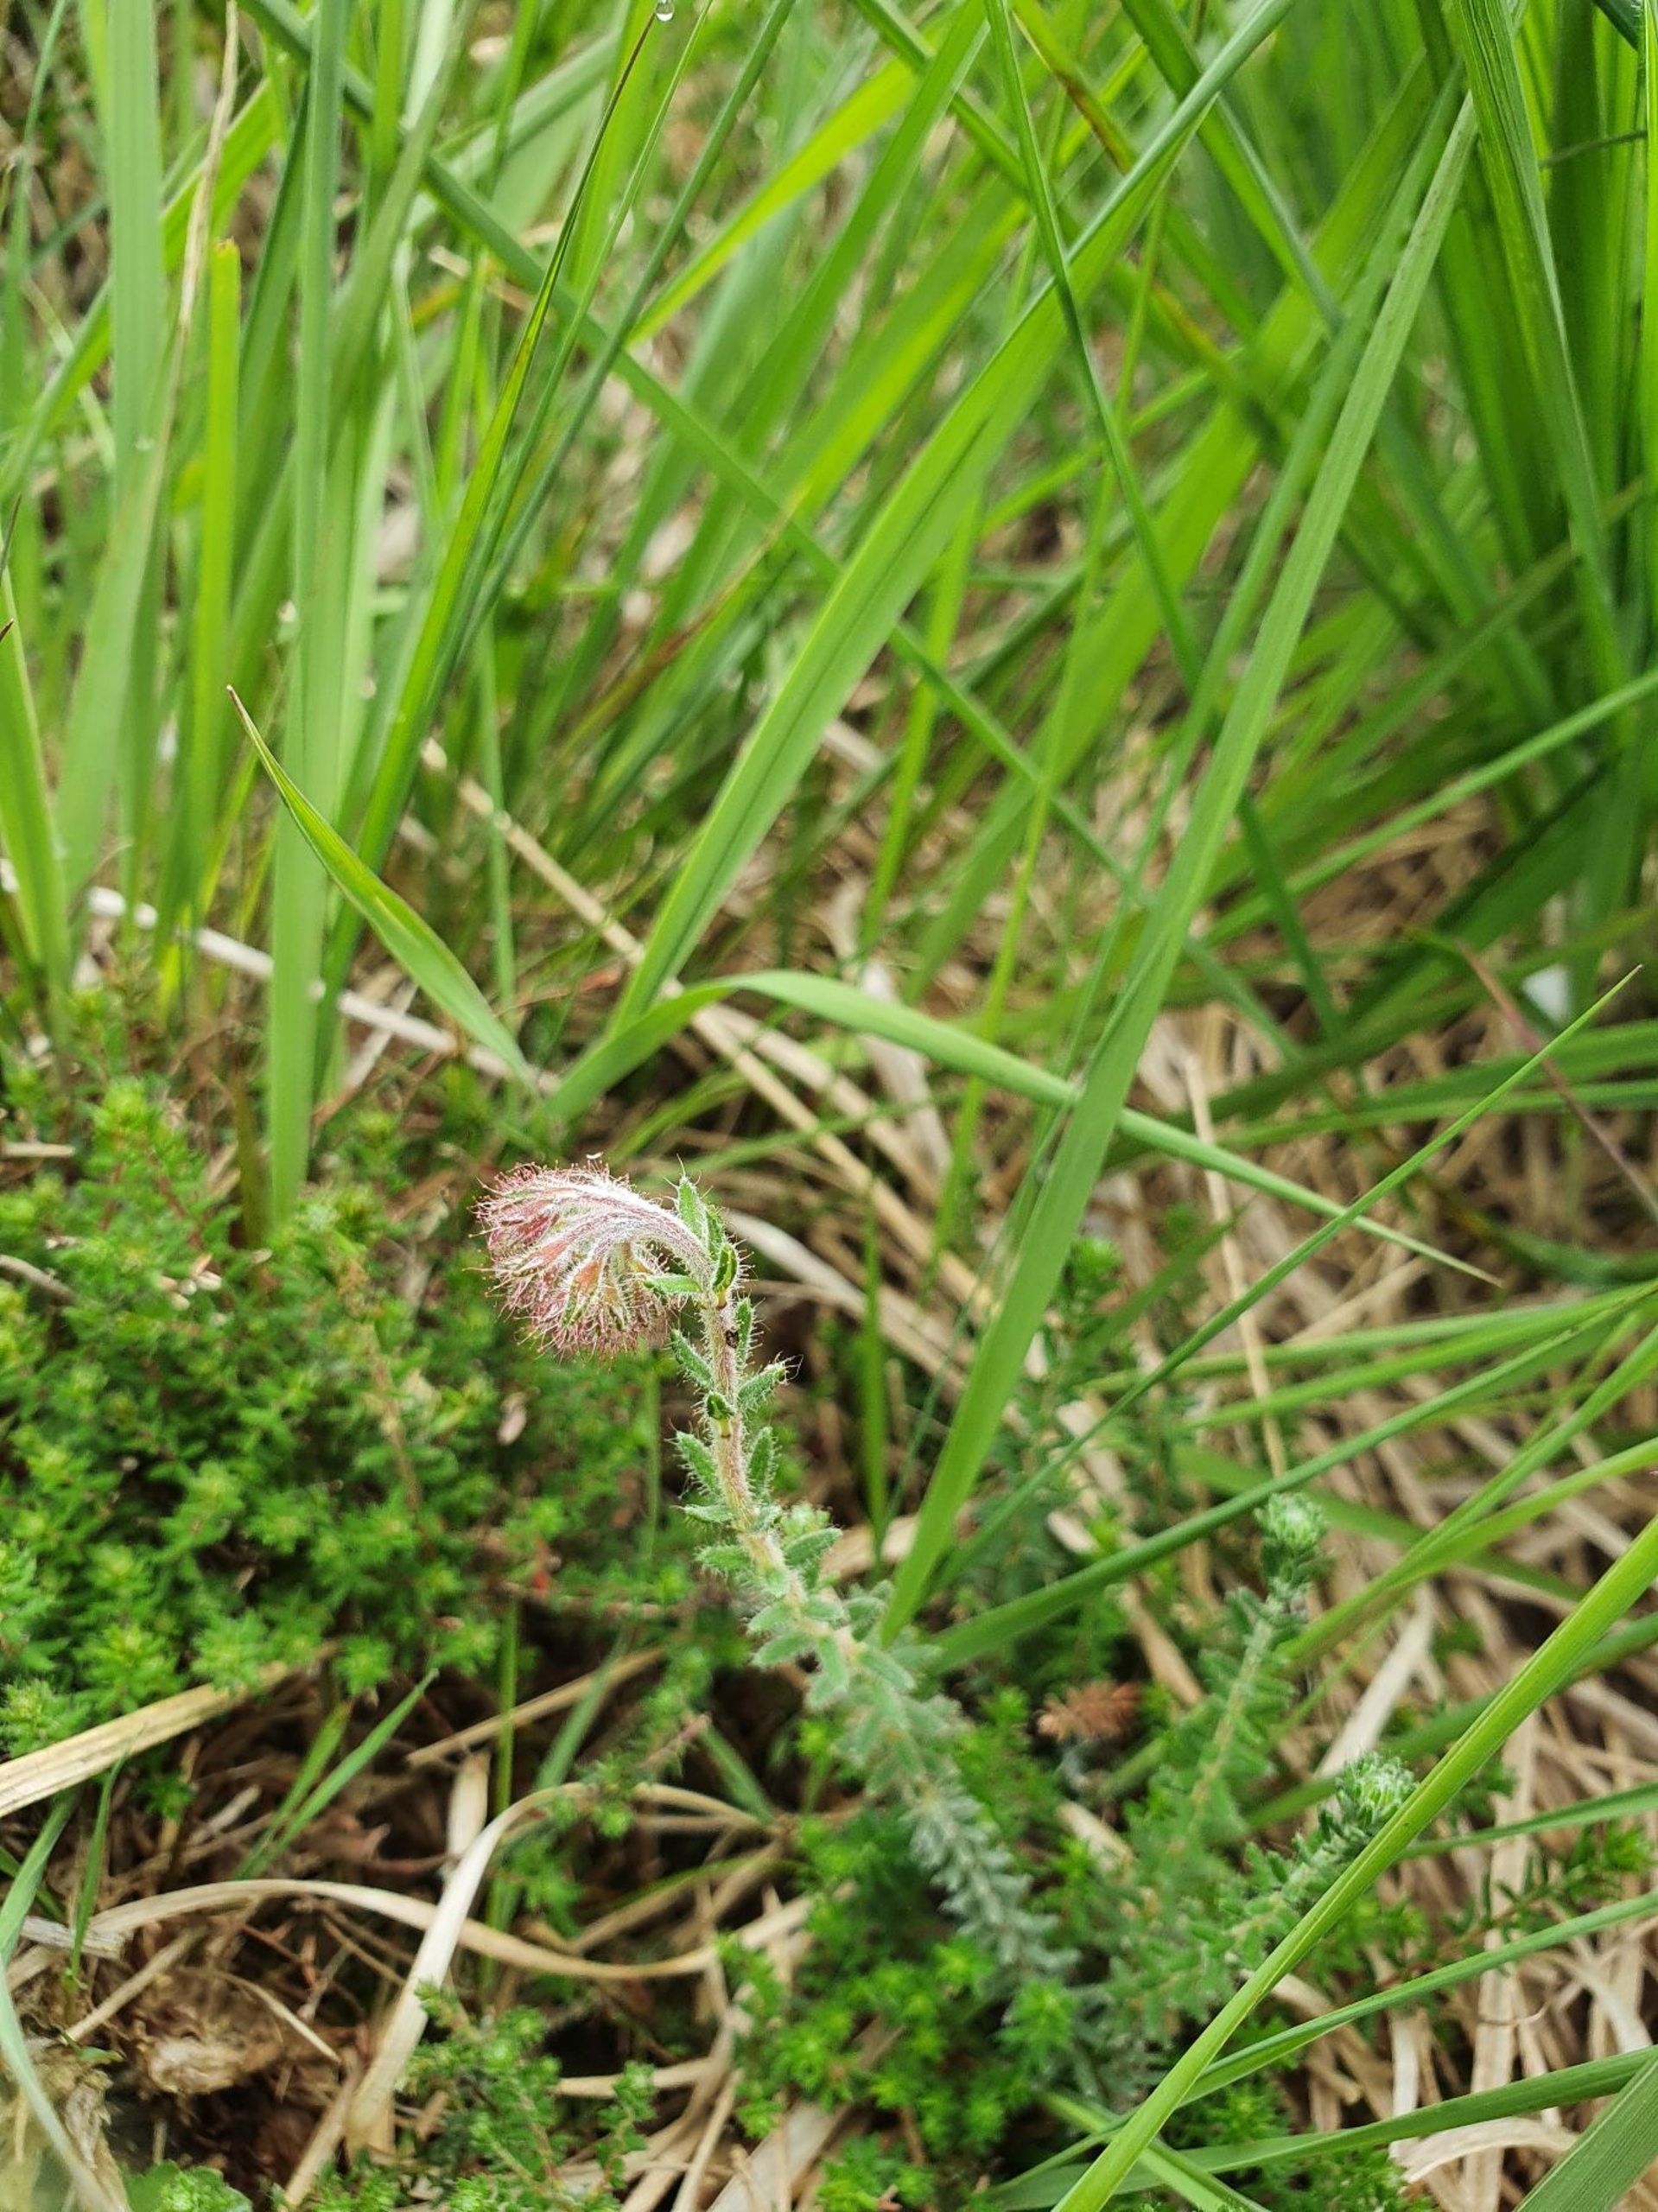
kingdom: Plantae
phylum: Tracheophyta
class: Magnoliopsida
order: Ericales
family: Ericaceae
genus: Erica
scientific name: Erica tetralix
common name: Klokkelyng
